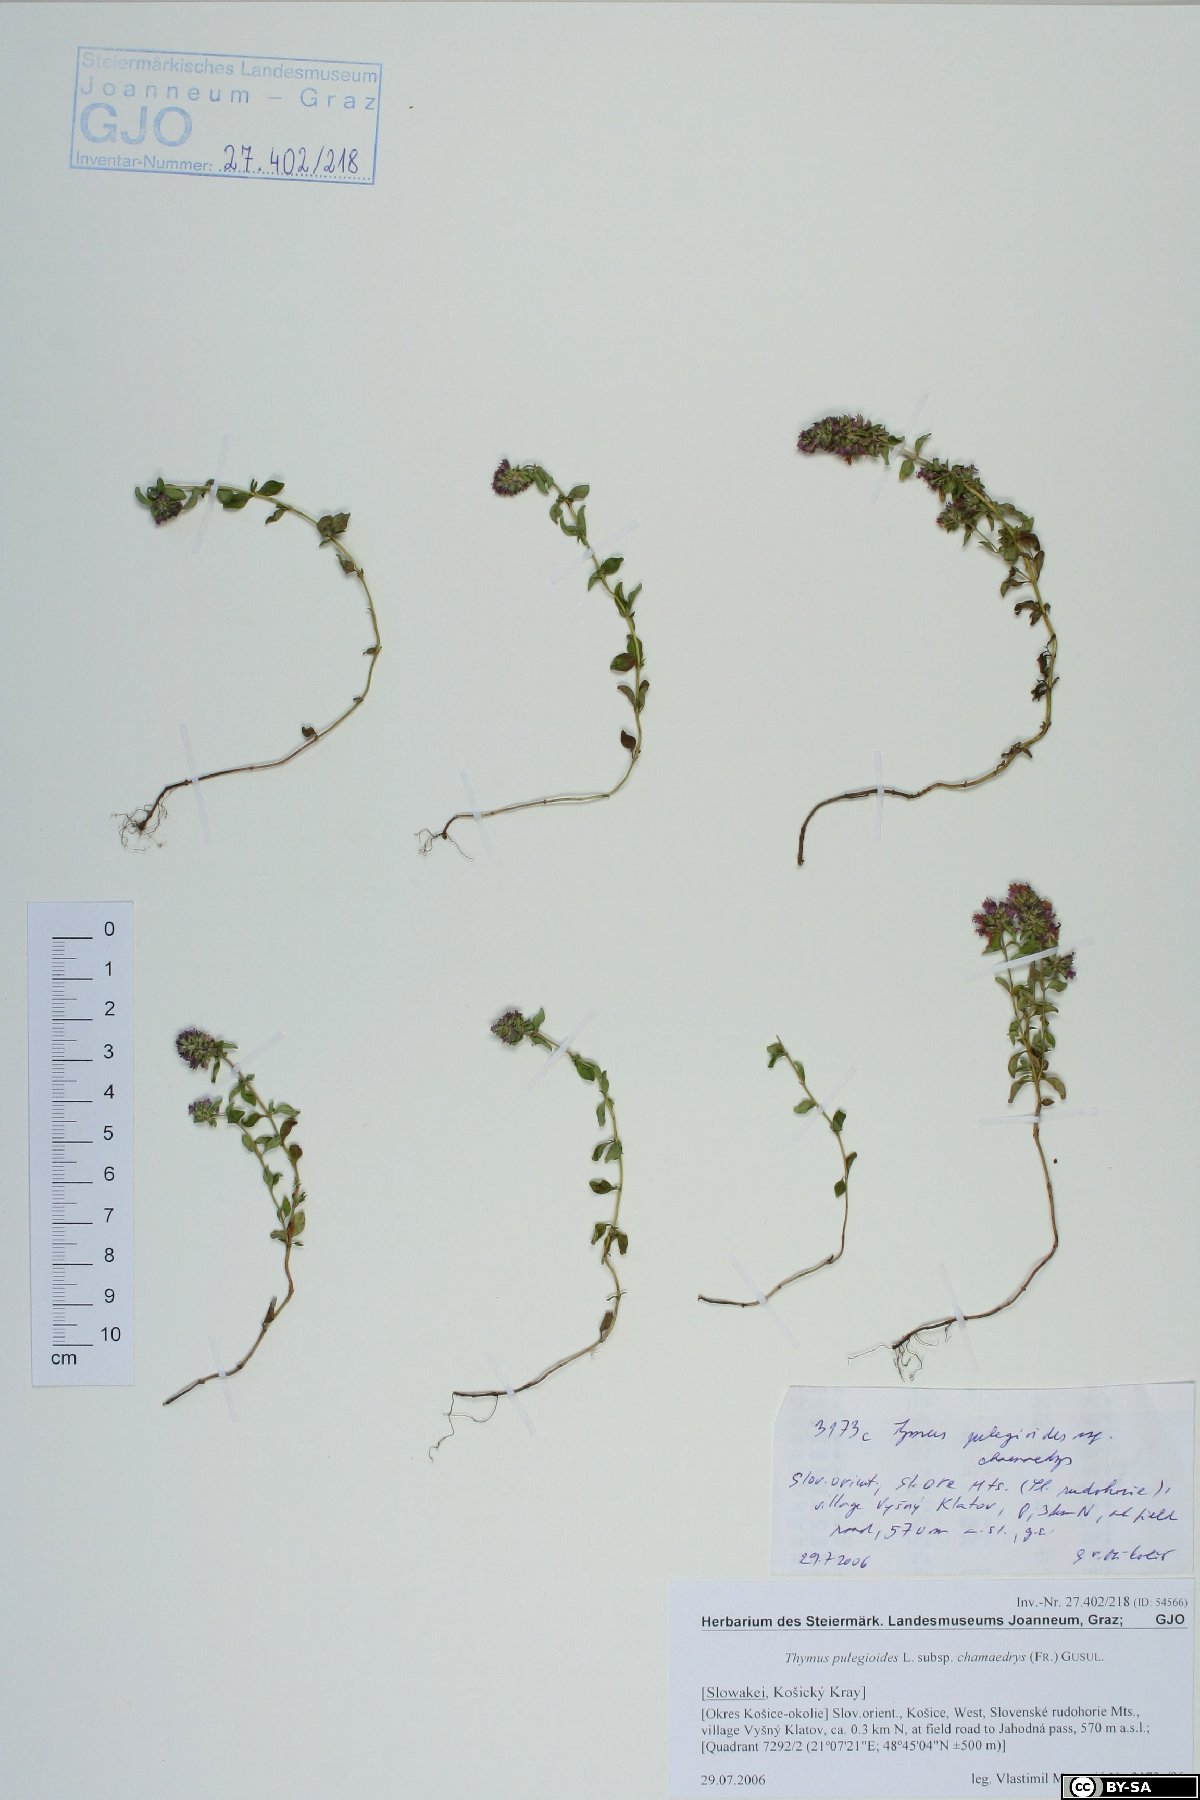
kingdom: Plantae
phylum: Tracheophyta
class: Magnoliopsida
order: Lamiales
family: Lamiaceae
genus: Thymus
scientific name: Thymus pulegioides
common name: Large thyme
